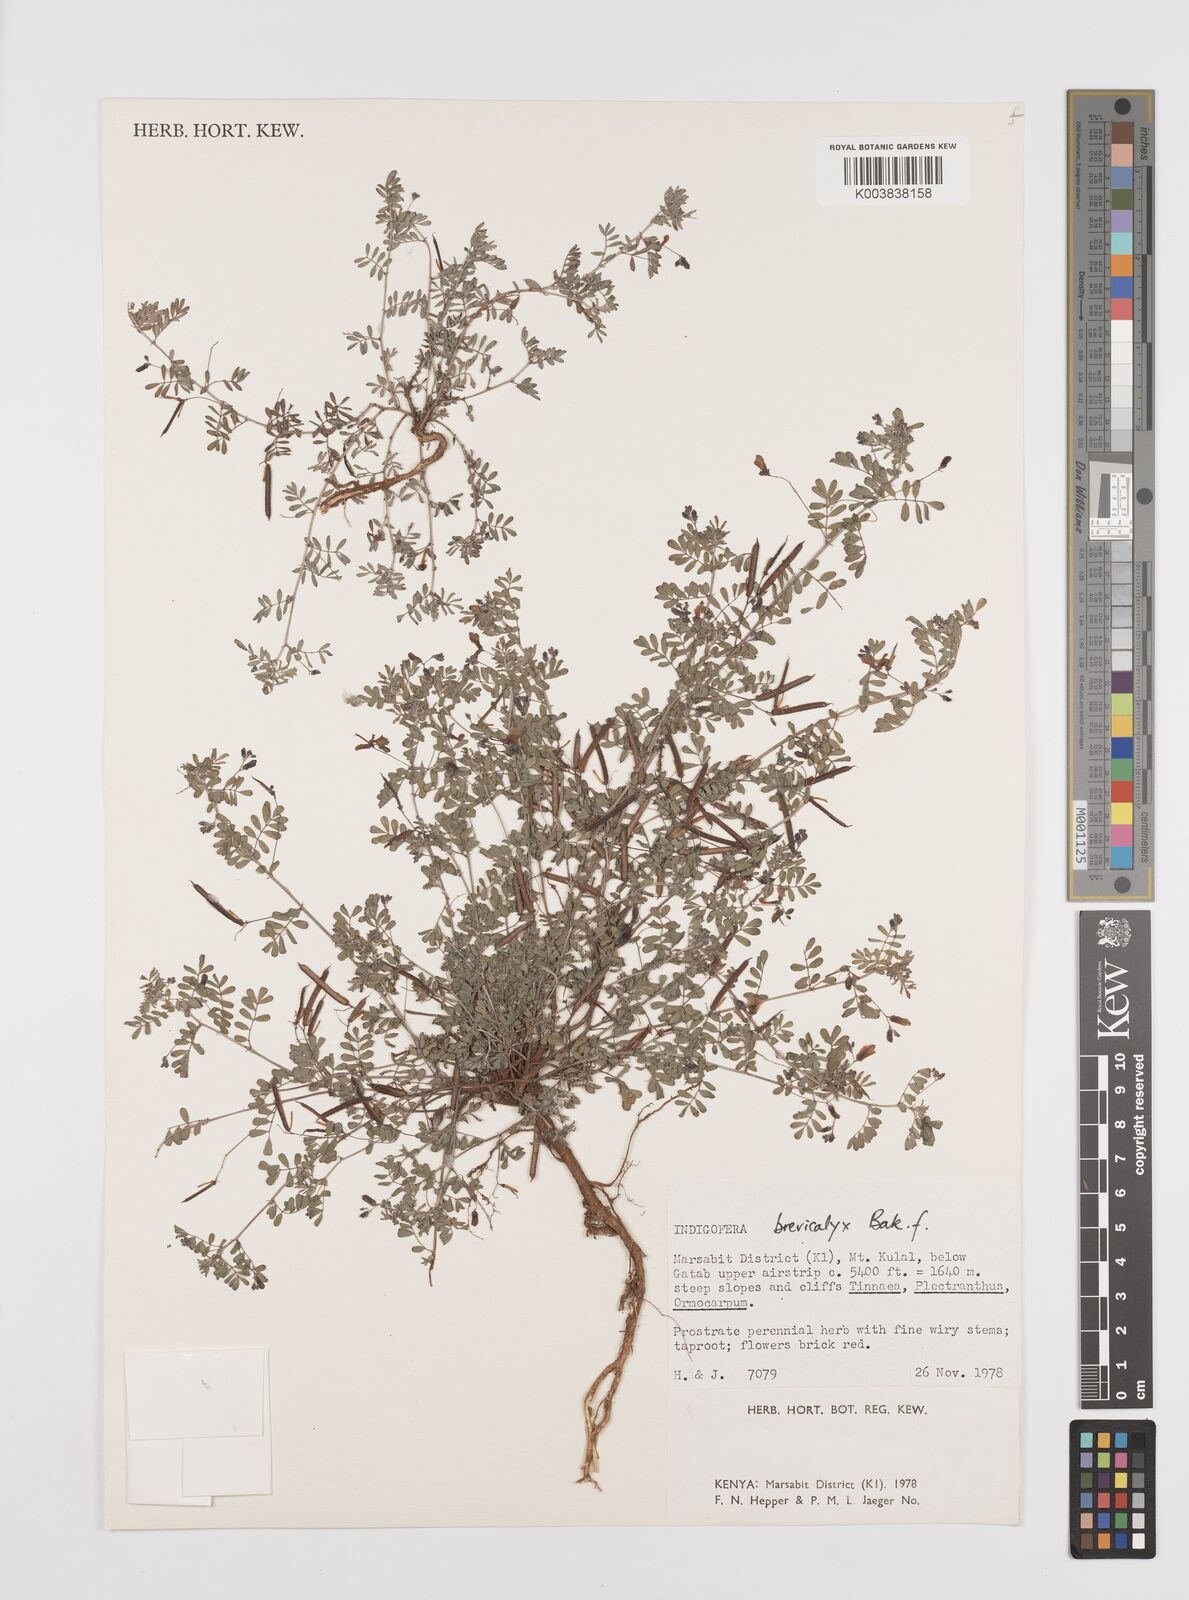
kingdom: Plantae
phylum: Tracheophyta
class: Magnoliopsida
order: Fabales
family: Fabaceae
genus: Indigofera
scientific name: Indigofera brevicalyx
